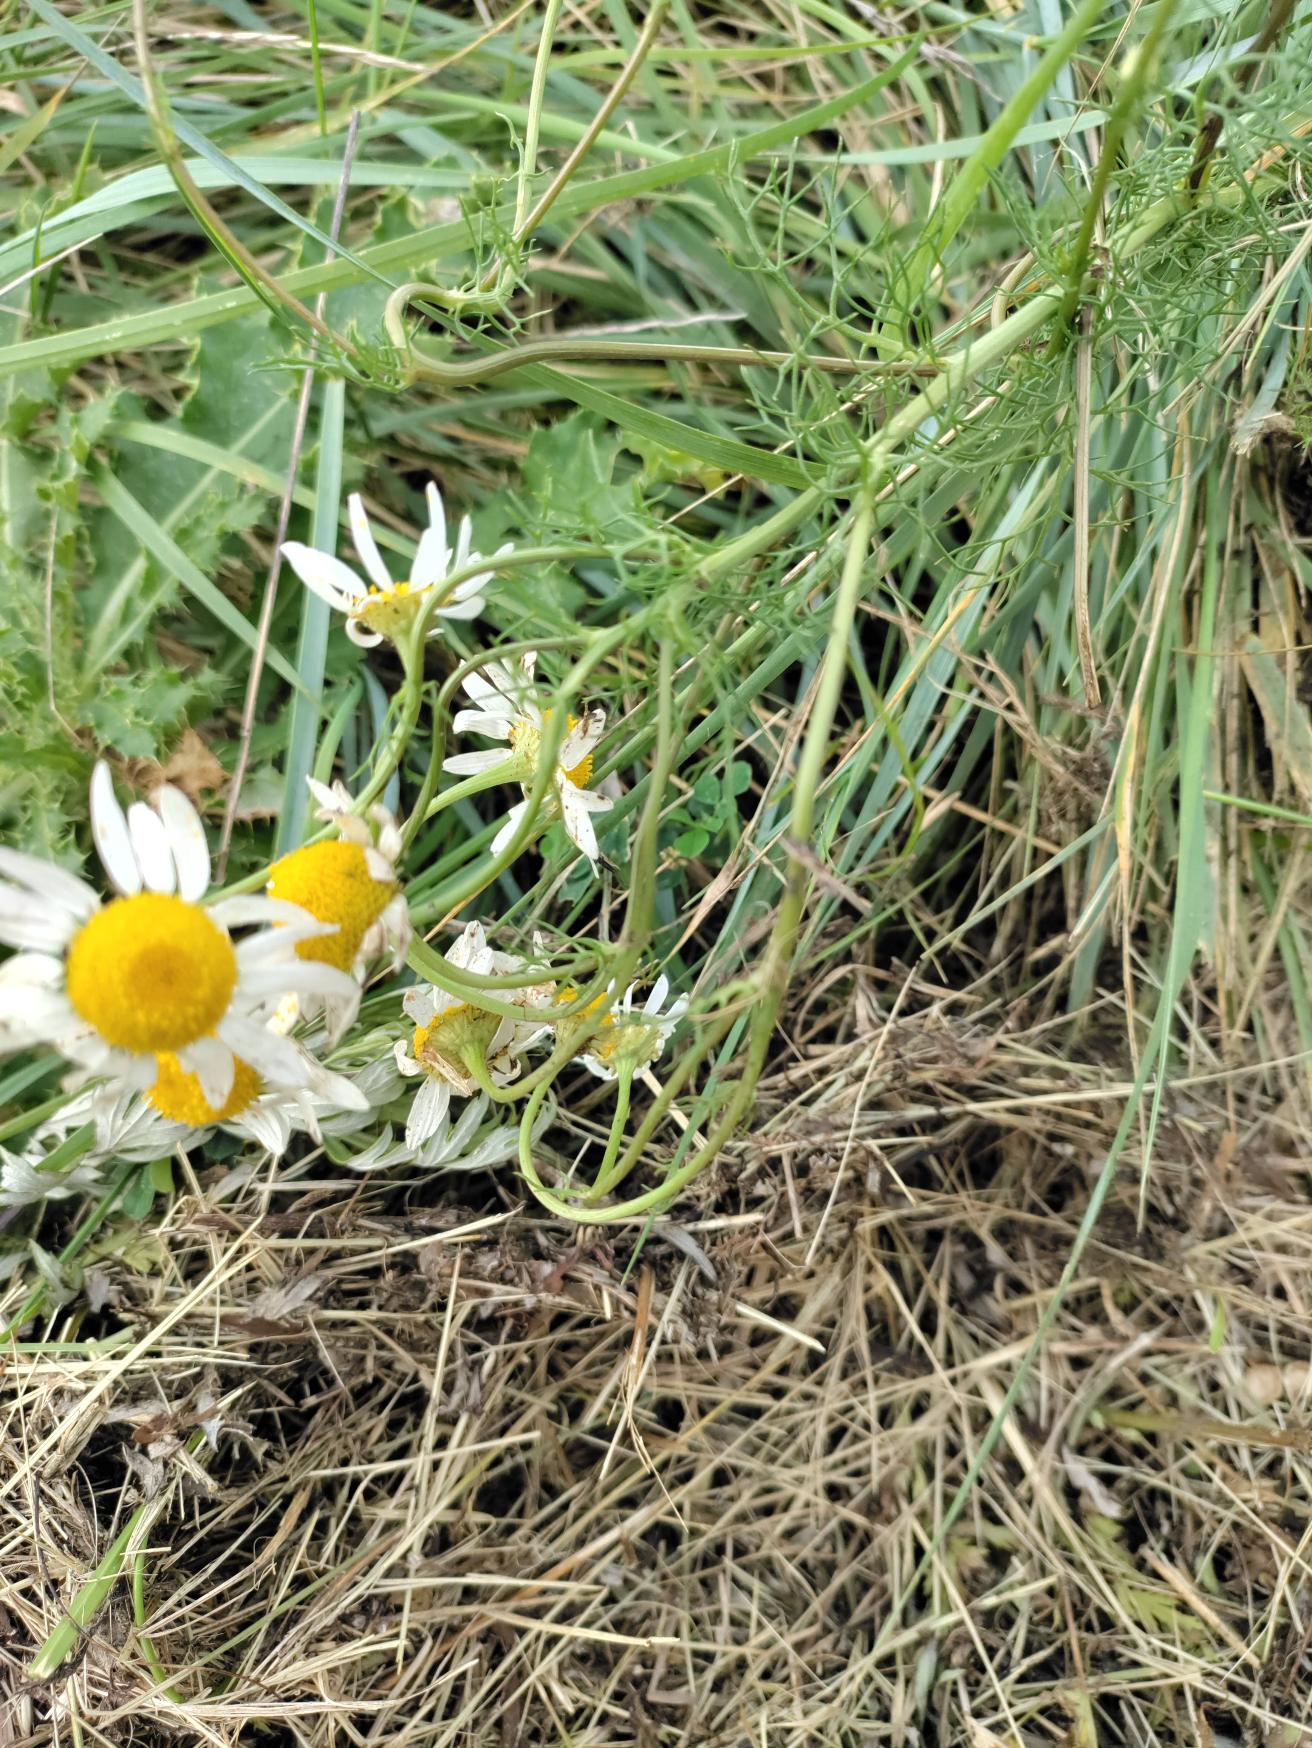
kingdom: Plantae
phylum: Tracheophyta
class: Magnoliopsida
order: Asterales
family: Asteraceae
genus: Tripleurospermum
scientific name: Tripleurospermum inodorum
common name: Lugtløs kamille
